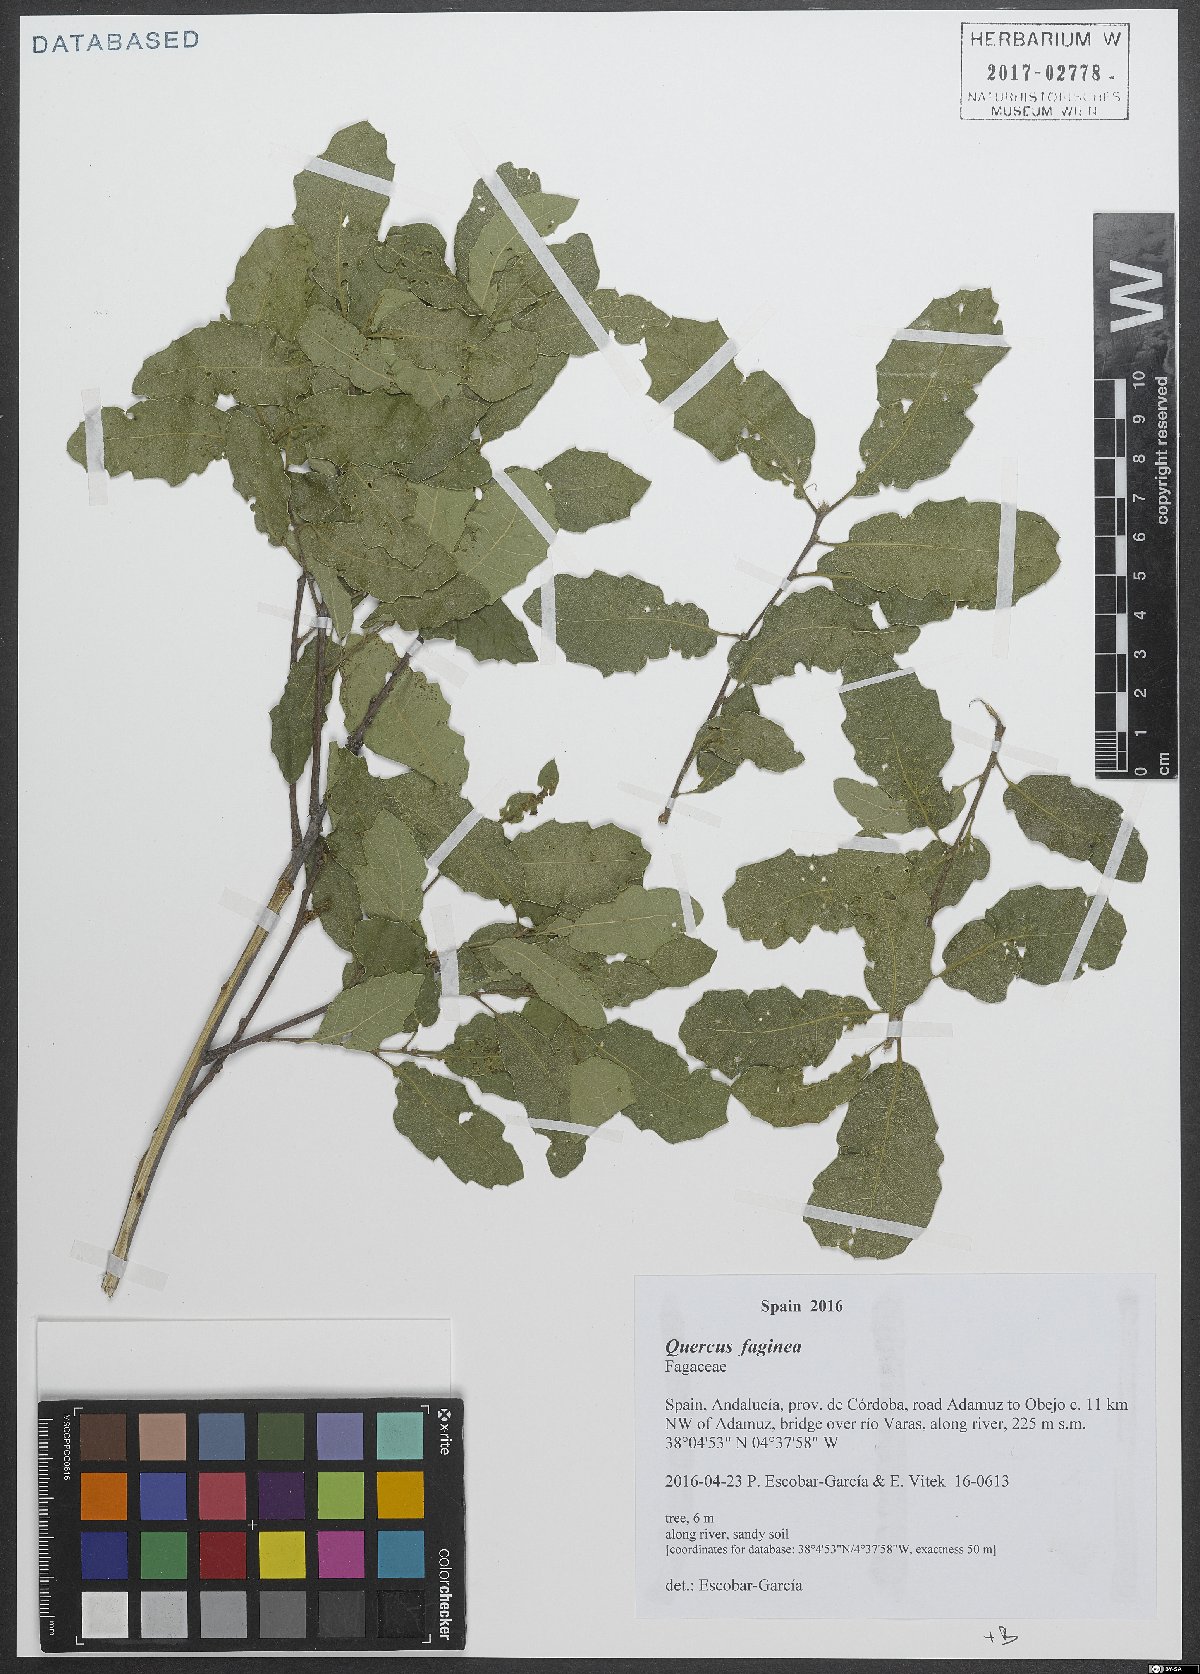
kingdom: Plantae
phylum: Tracheophyta
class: Magnoliopsida
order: Fagales
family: Fagaceae
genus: Quercus
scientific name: Quercus faginea
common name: Gall oak tree
